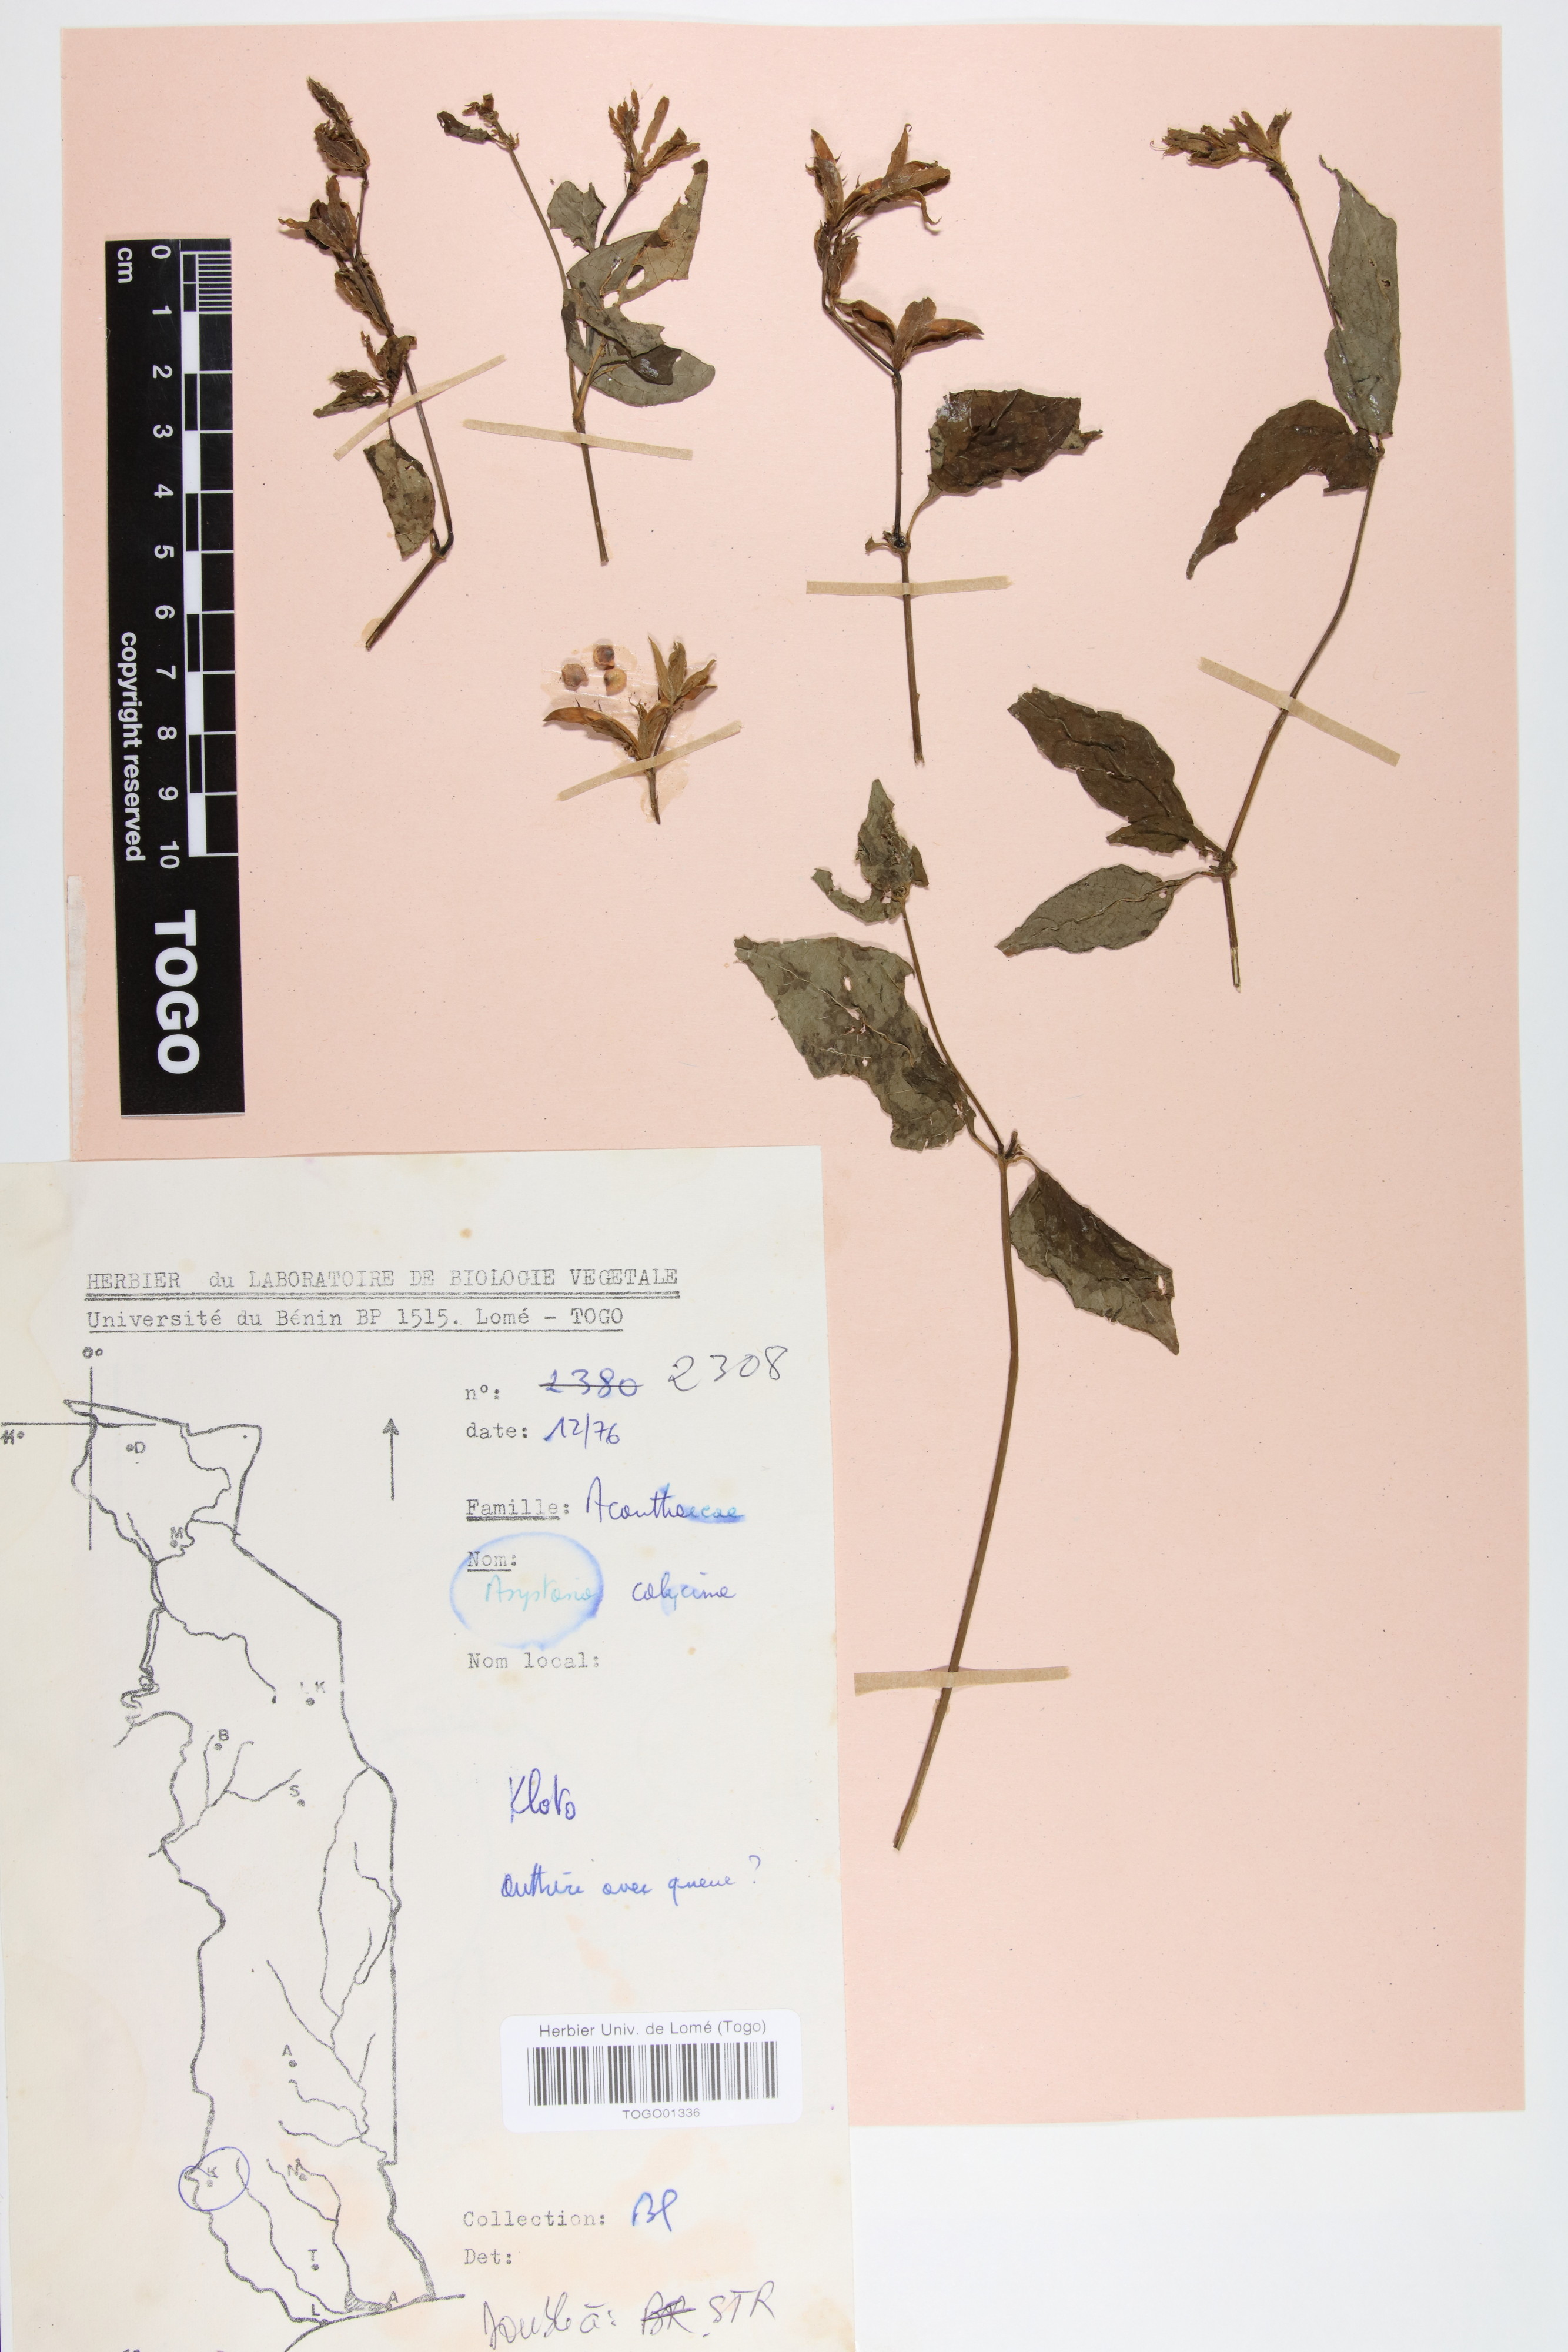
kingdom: Plantae
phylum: Tracheophyta
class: Magnoliopsida
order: Lamiales
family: Acanthaceae
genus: Asystasia
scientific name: Asystasia buettneri
